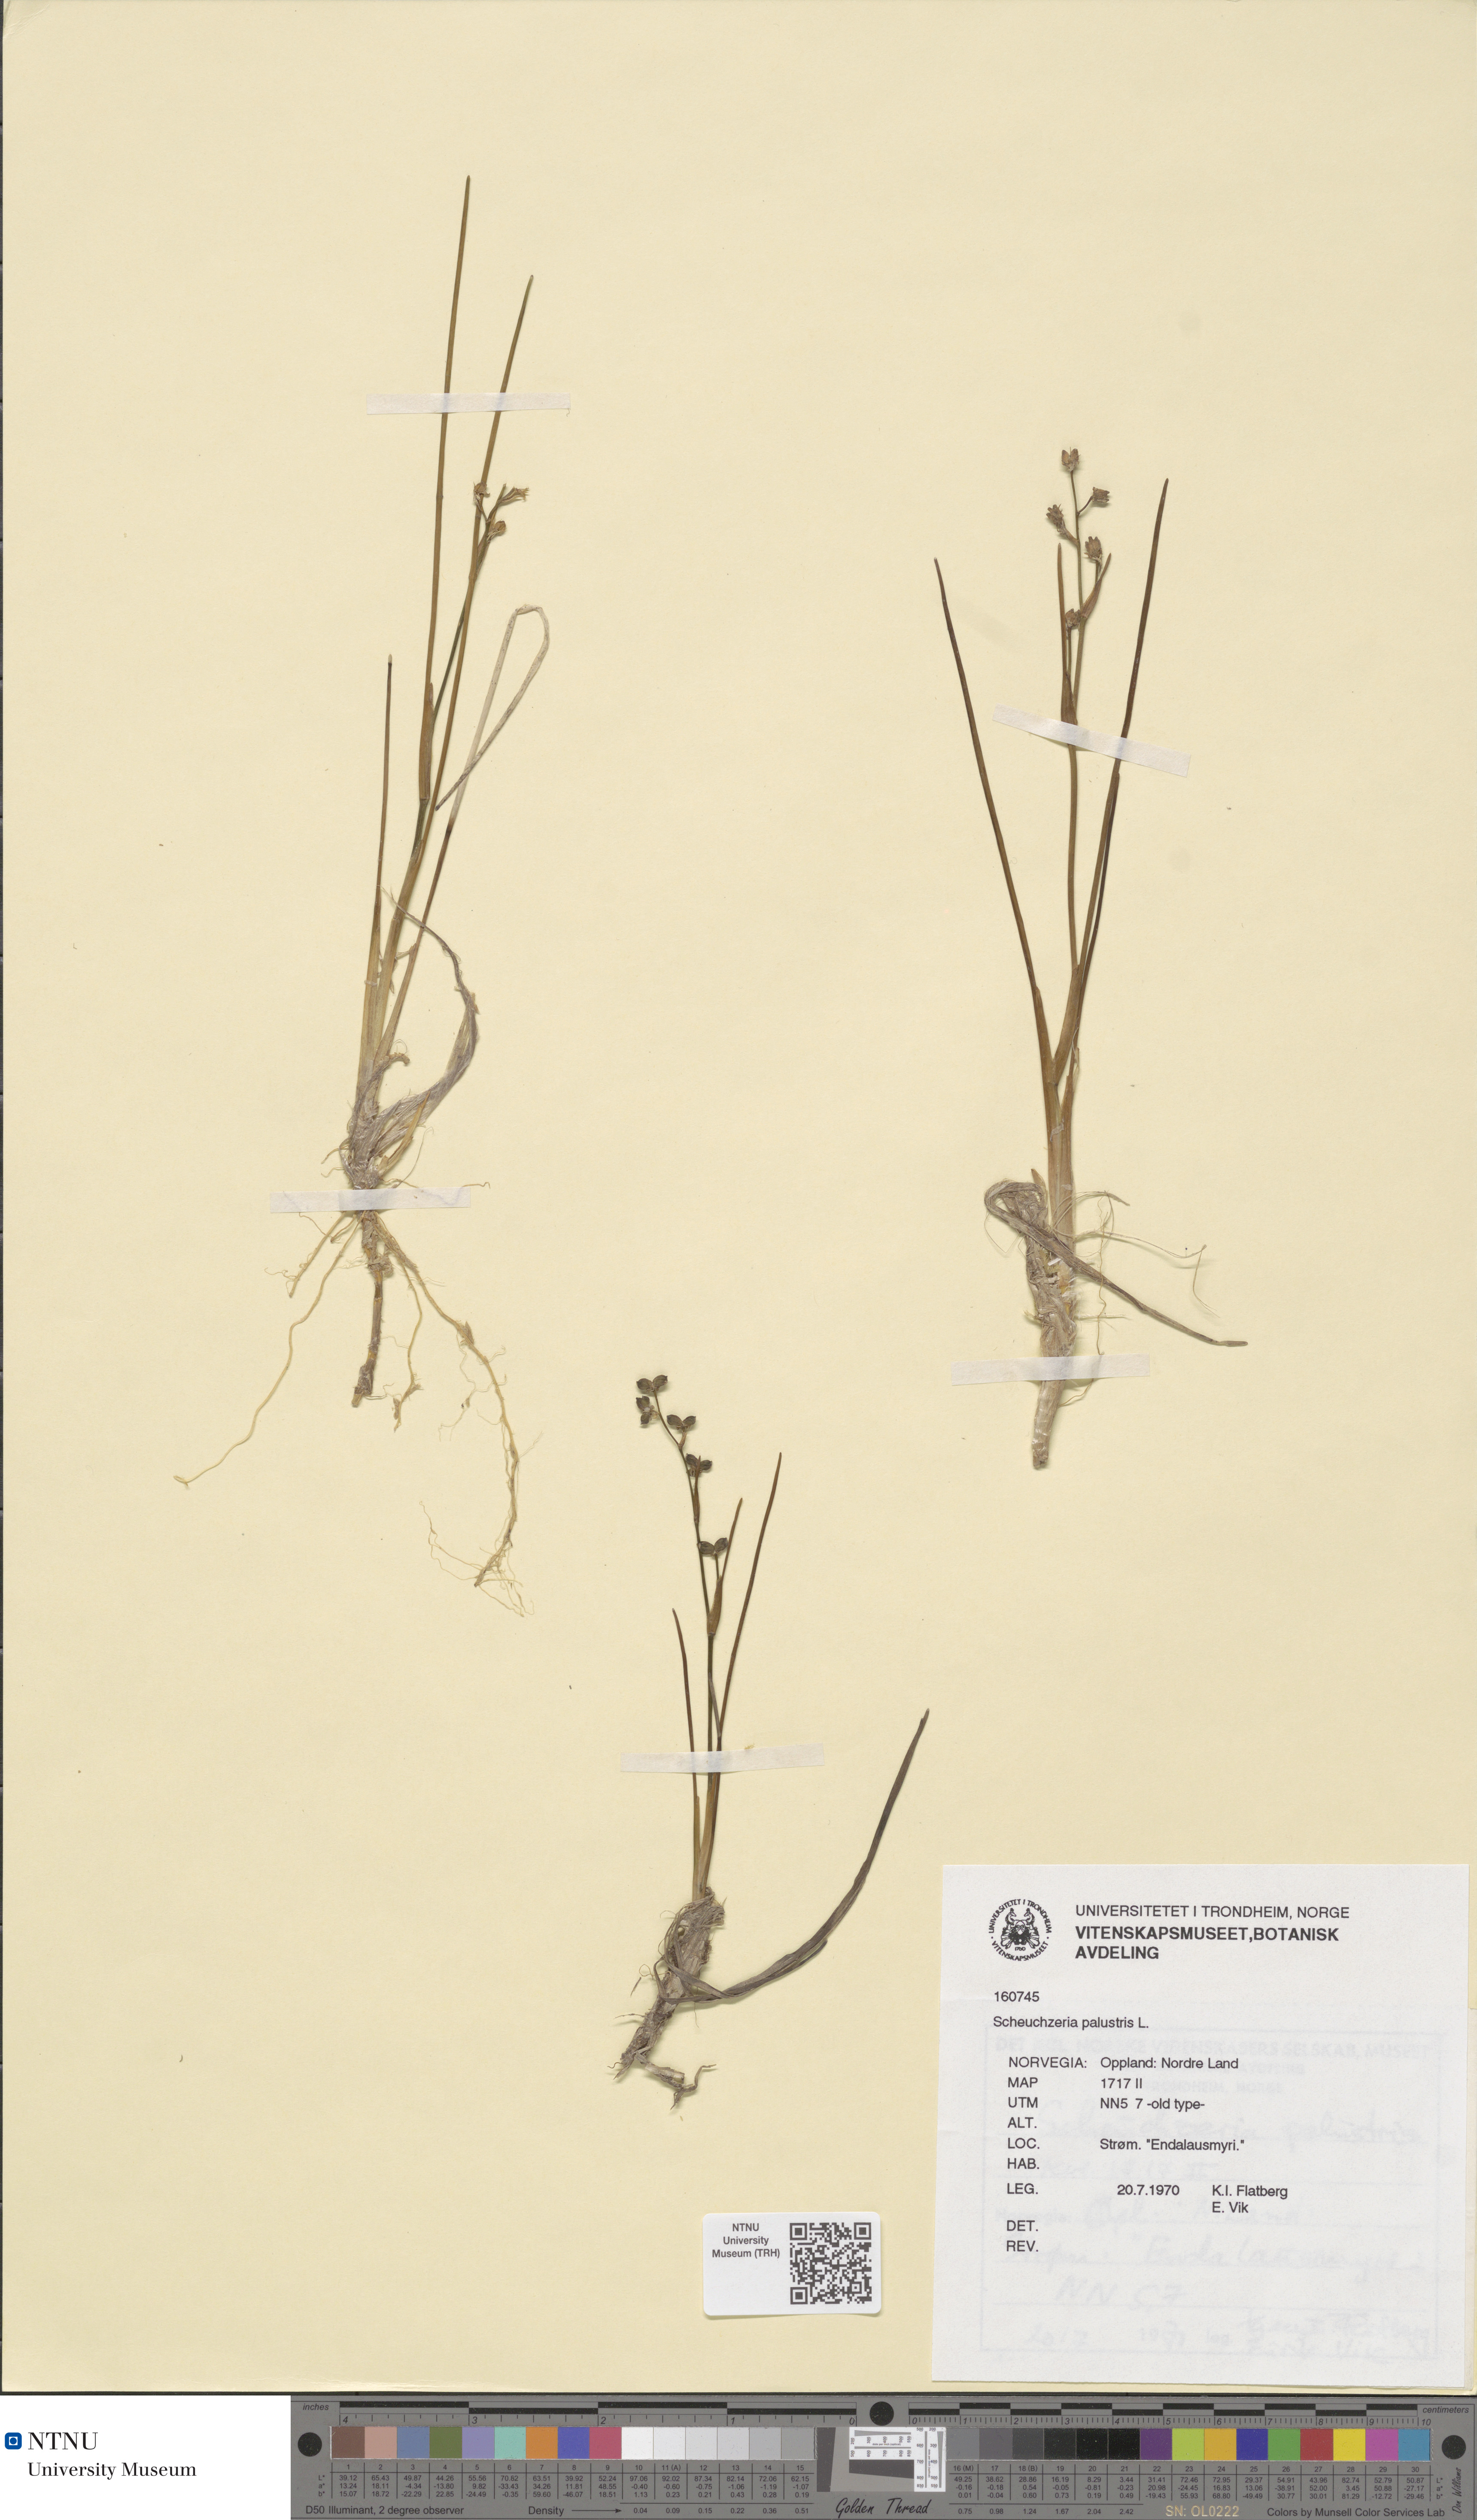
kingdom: Plantae
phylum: Tracheophyta
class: Liliopsida
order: Alismatales
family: Scheuchzeriaceae
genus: Scheuchzeria
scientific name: Scheuchzeria palustris
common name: Rannoch-rush
